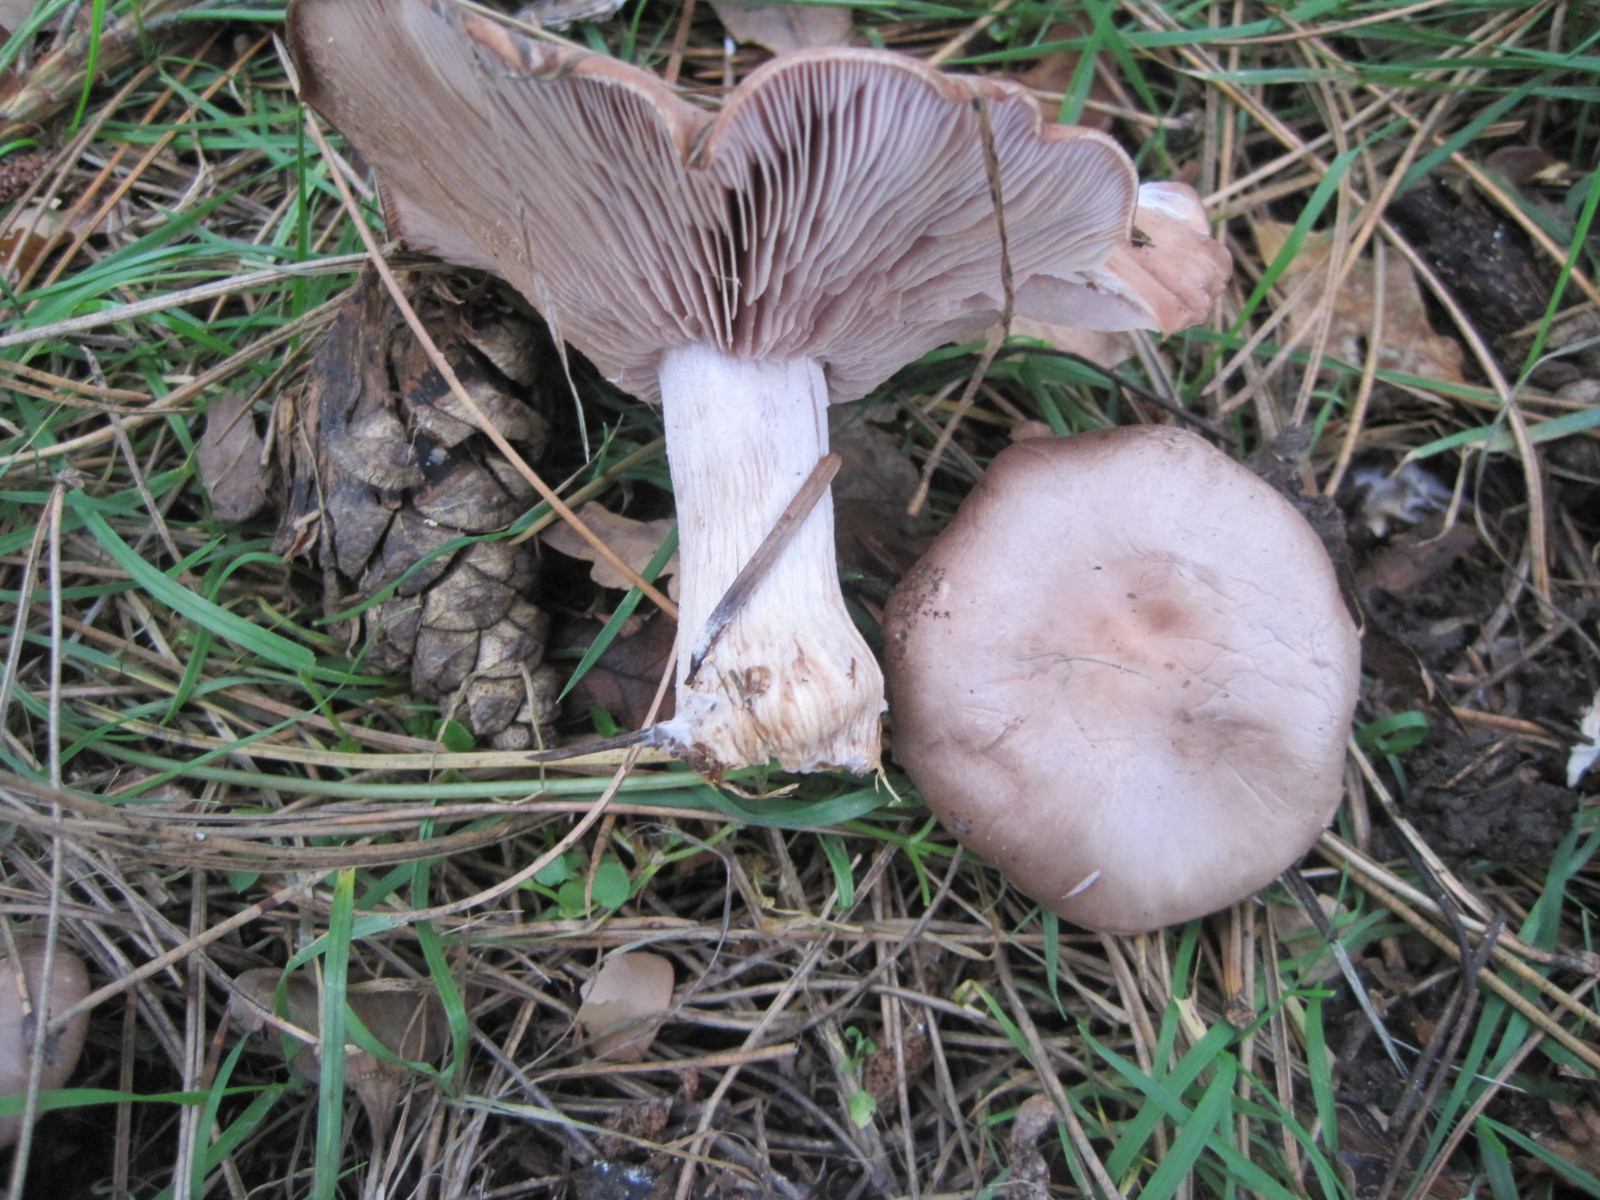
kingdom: Fungi
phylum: Basidiomycota
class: Agaricomycetes
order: Agaricales
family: Tricholomataceae
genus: Lepista
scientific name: Lepista nuda
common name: violet hekseringshat
